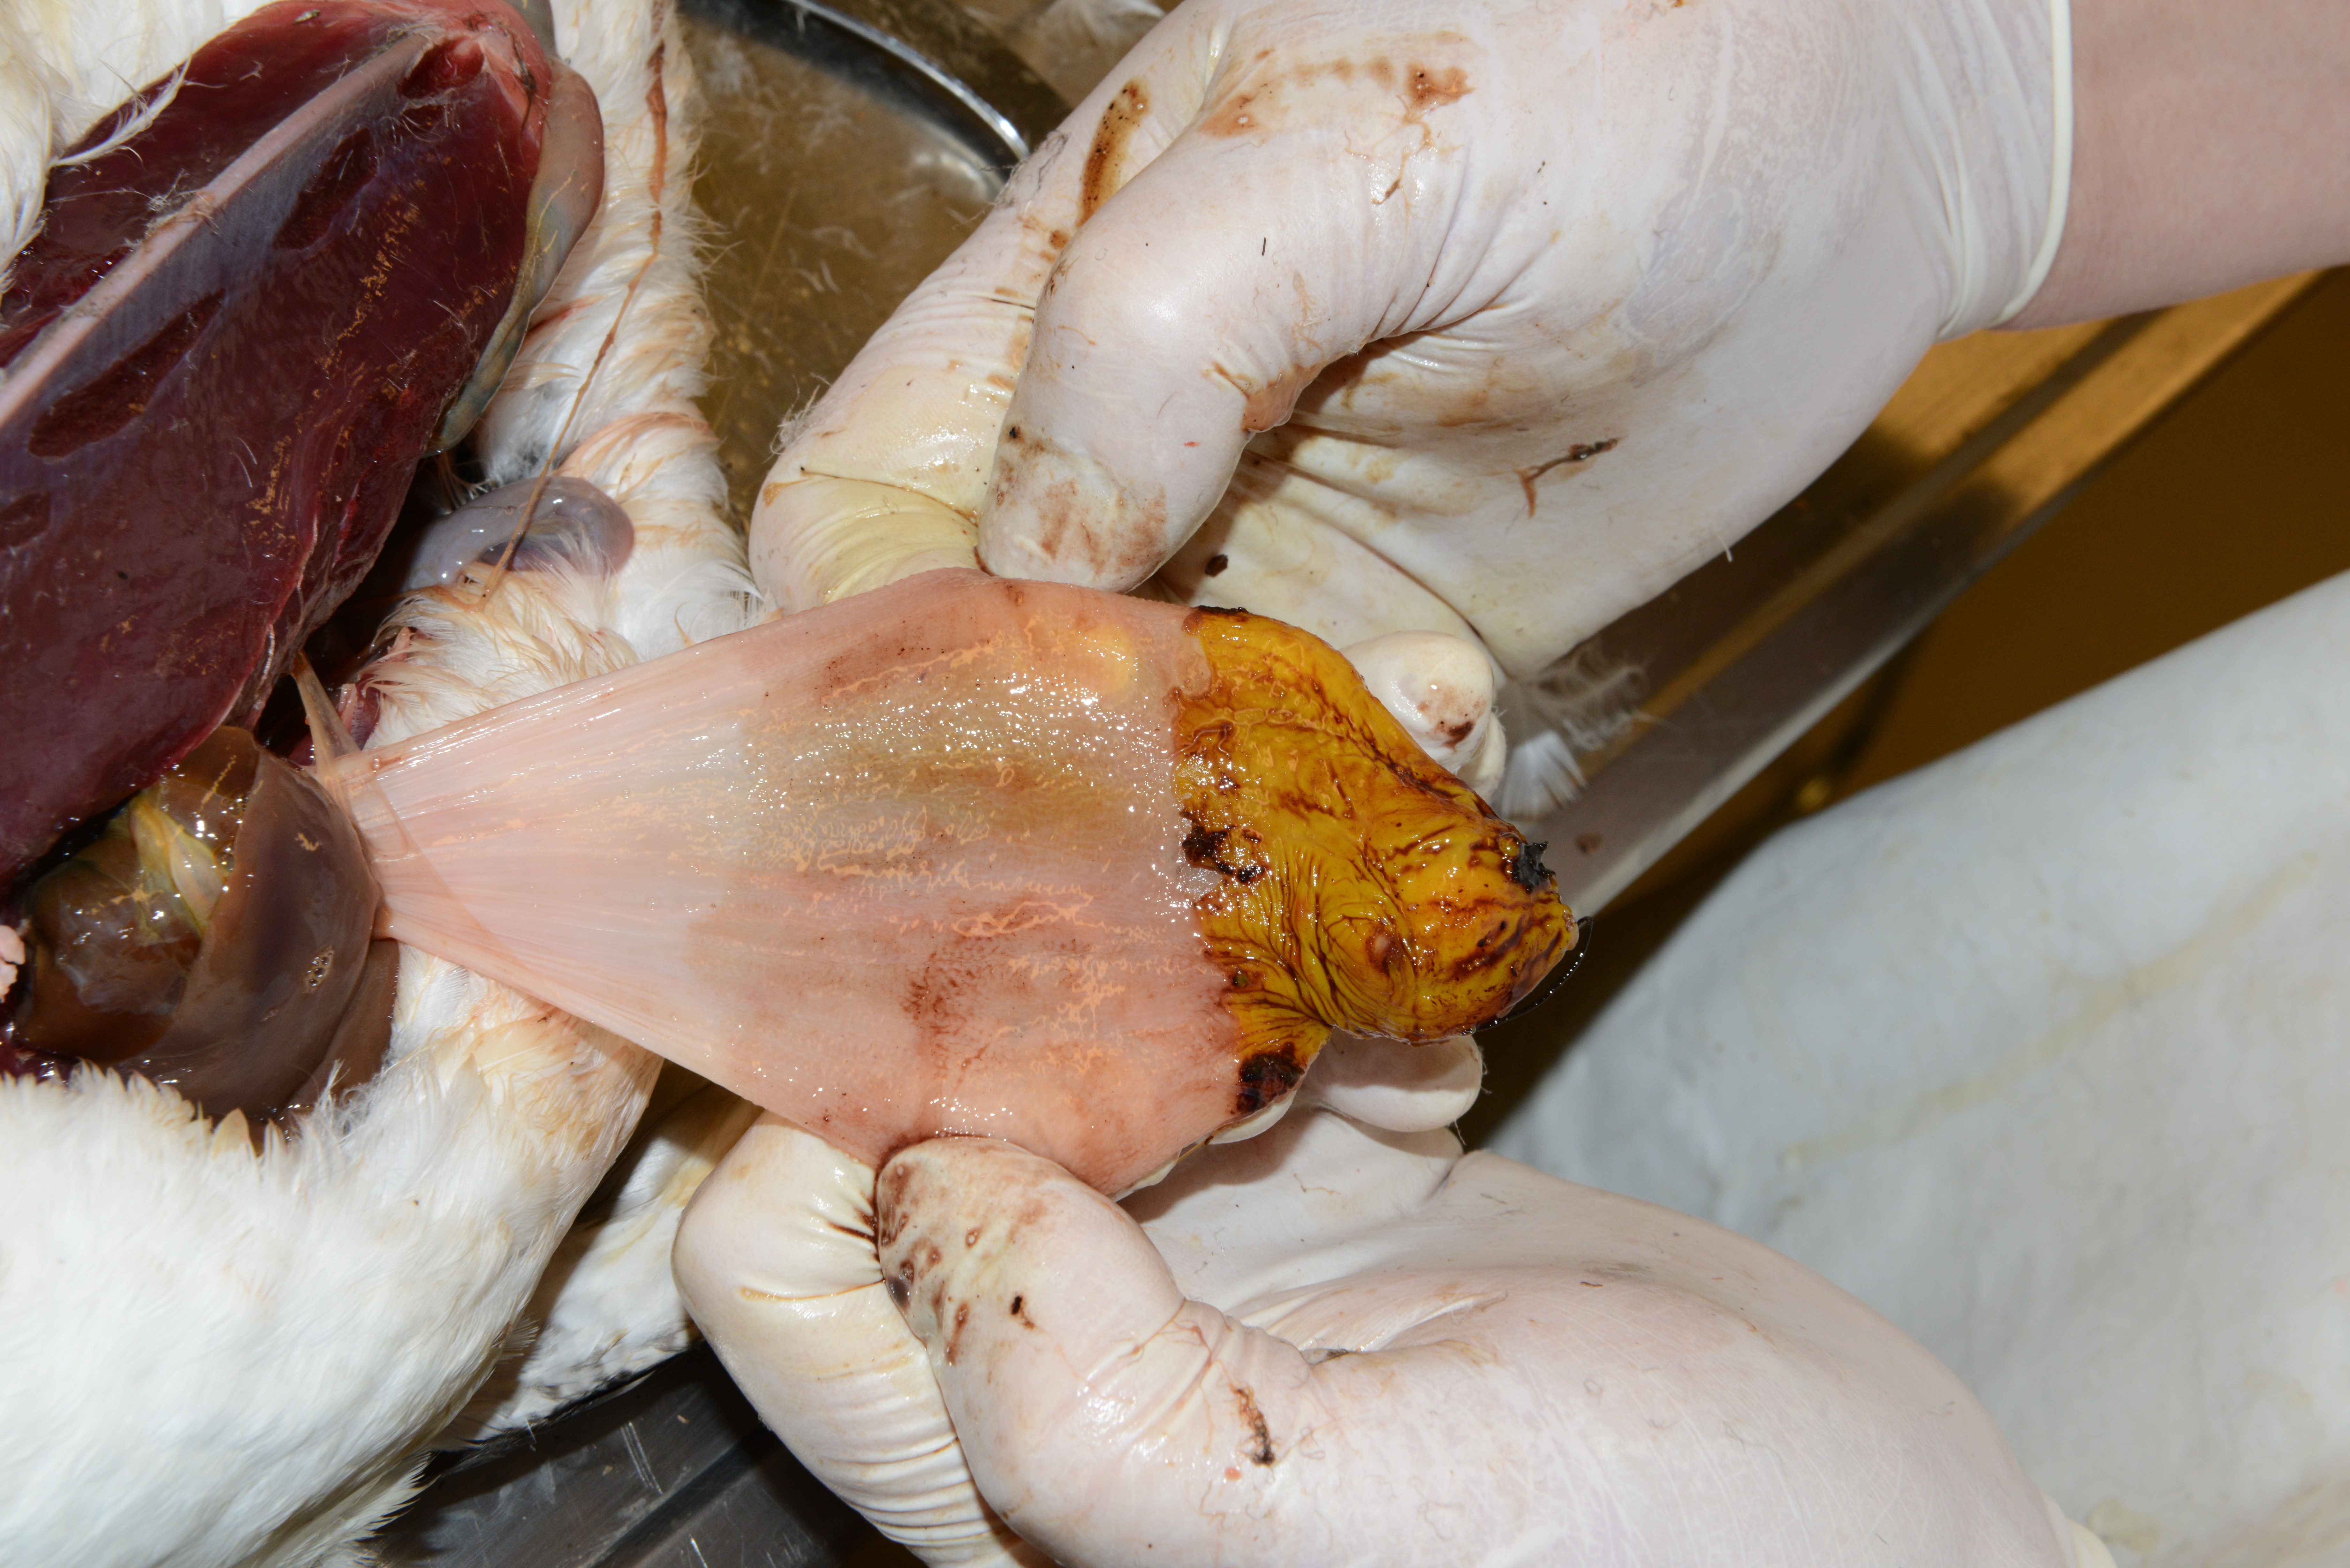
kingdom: Animalia
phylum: Chordata
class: Aves
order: Charadriiformes
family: Alcidae
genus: Uria
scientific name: Uria aalge
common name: Common murre
